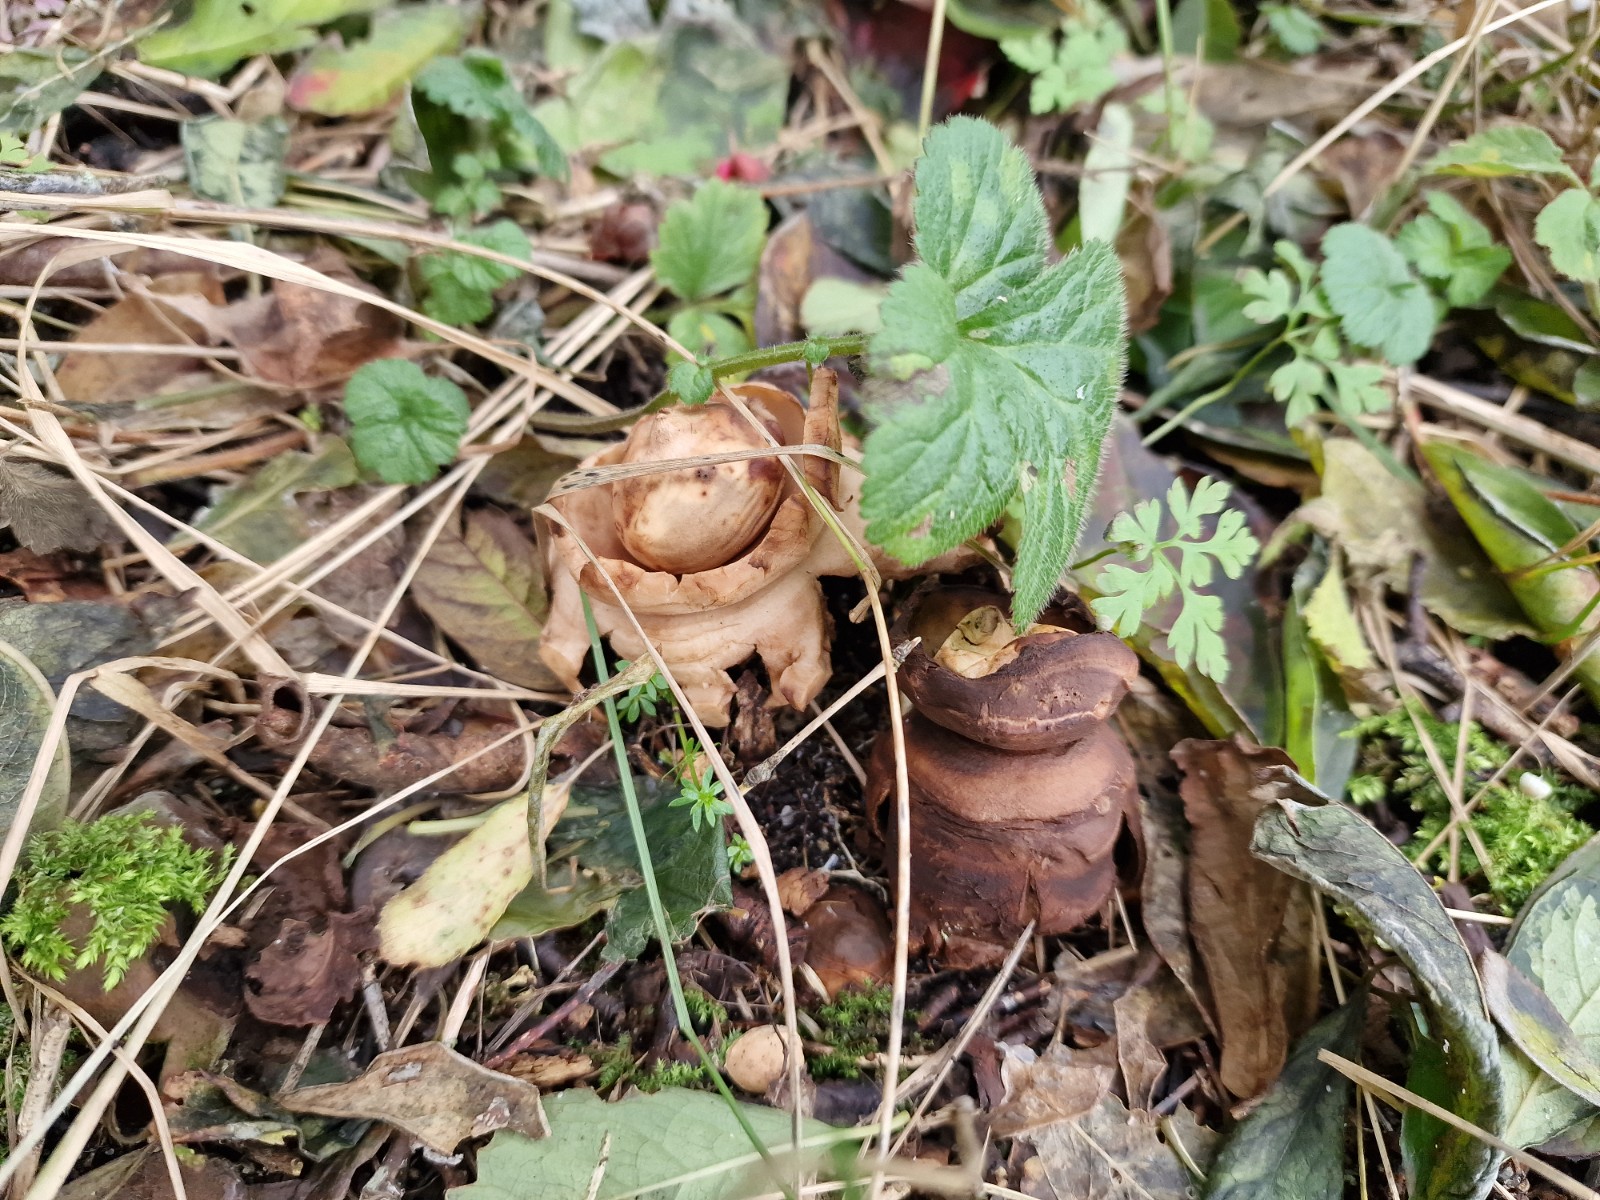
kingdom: Fungi
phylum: Basidiomycota
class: Agaricomycetes
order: Geastrales
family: Geastraceae
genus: Geastrum
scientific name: Geastrum michelianum
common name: kødet stjernebold
